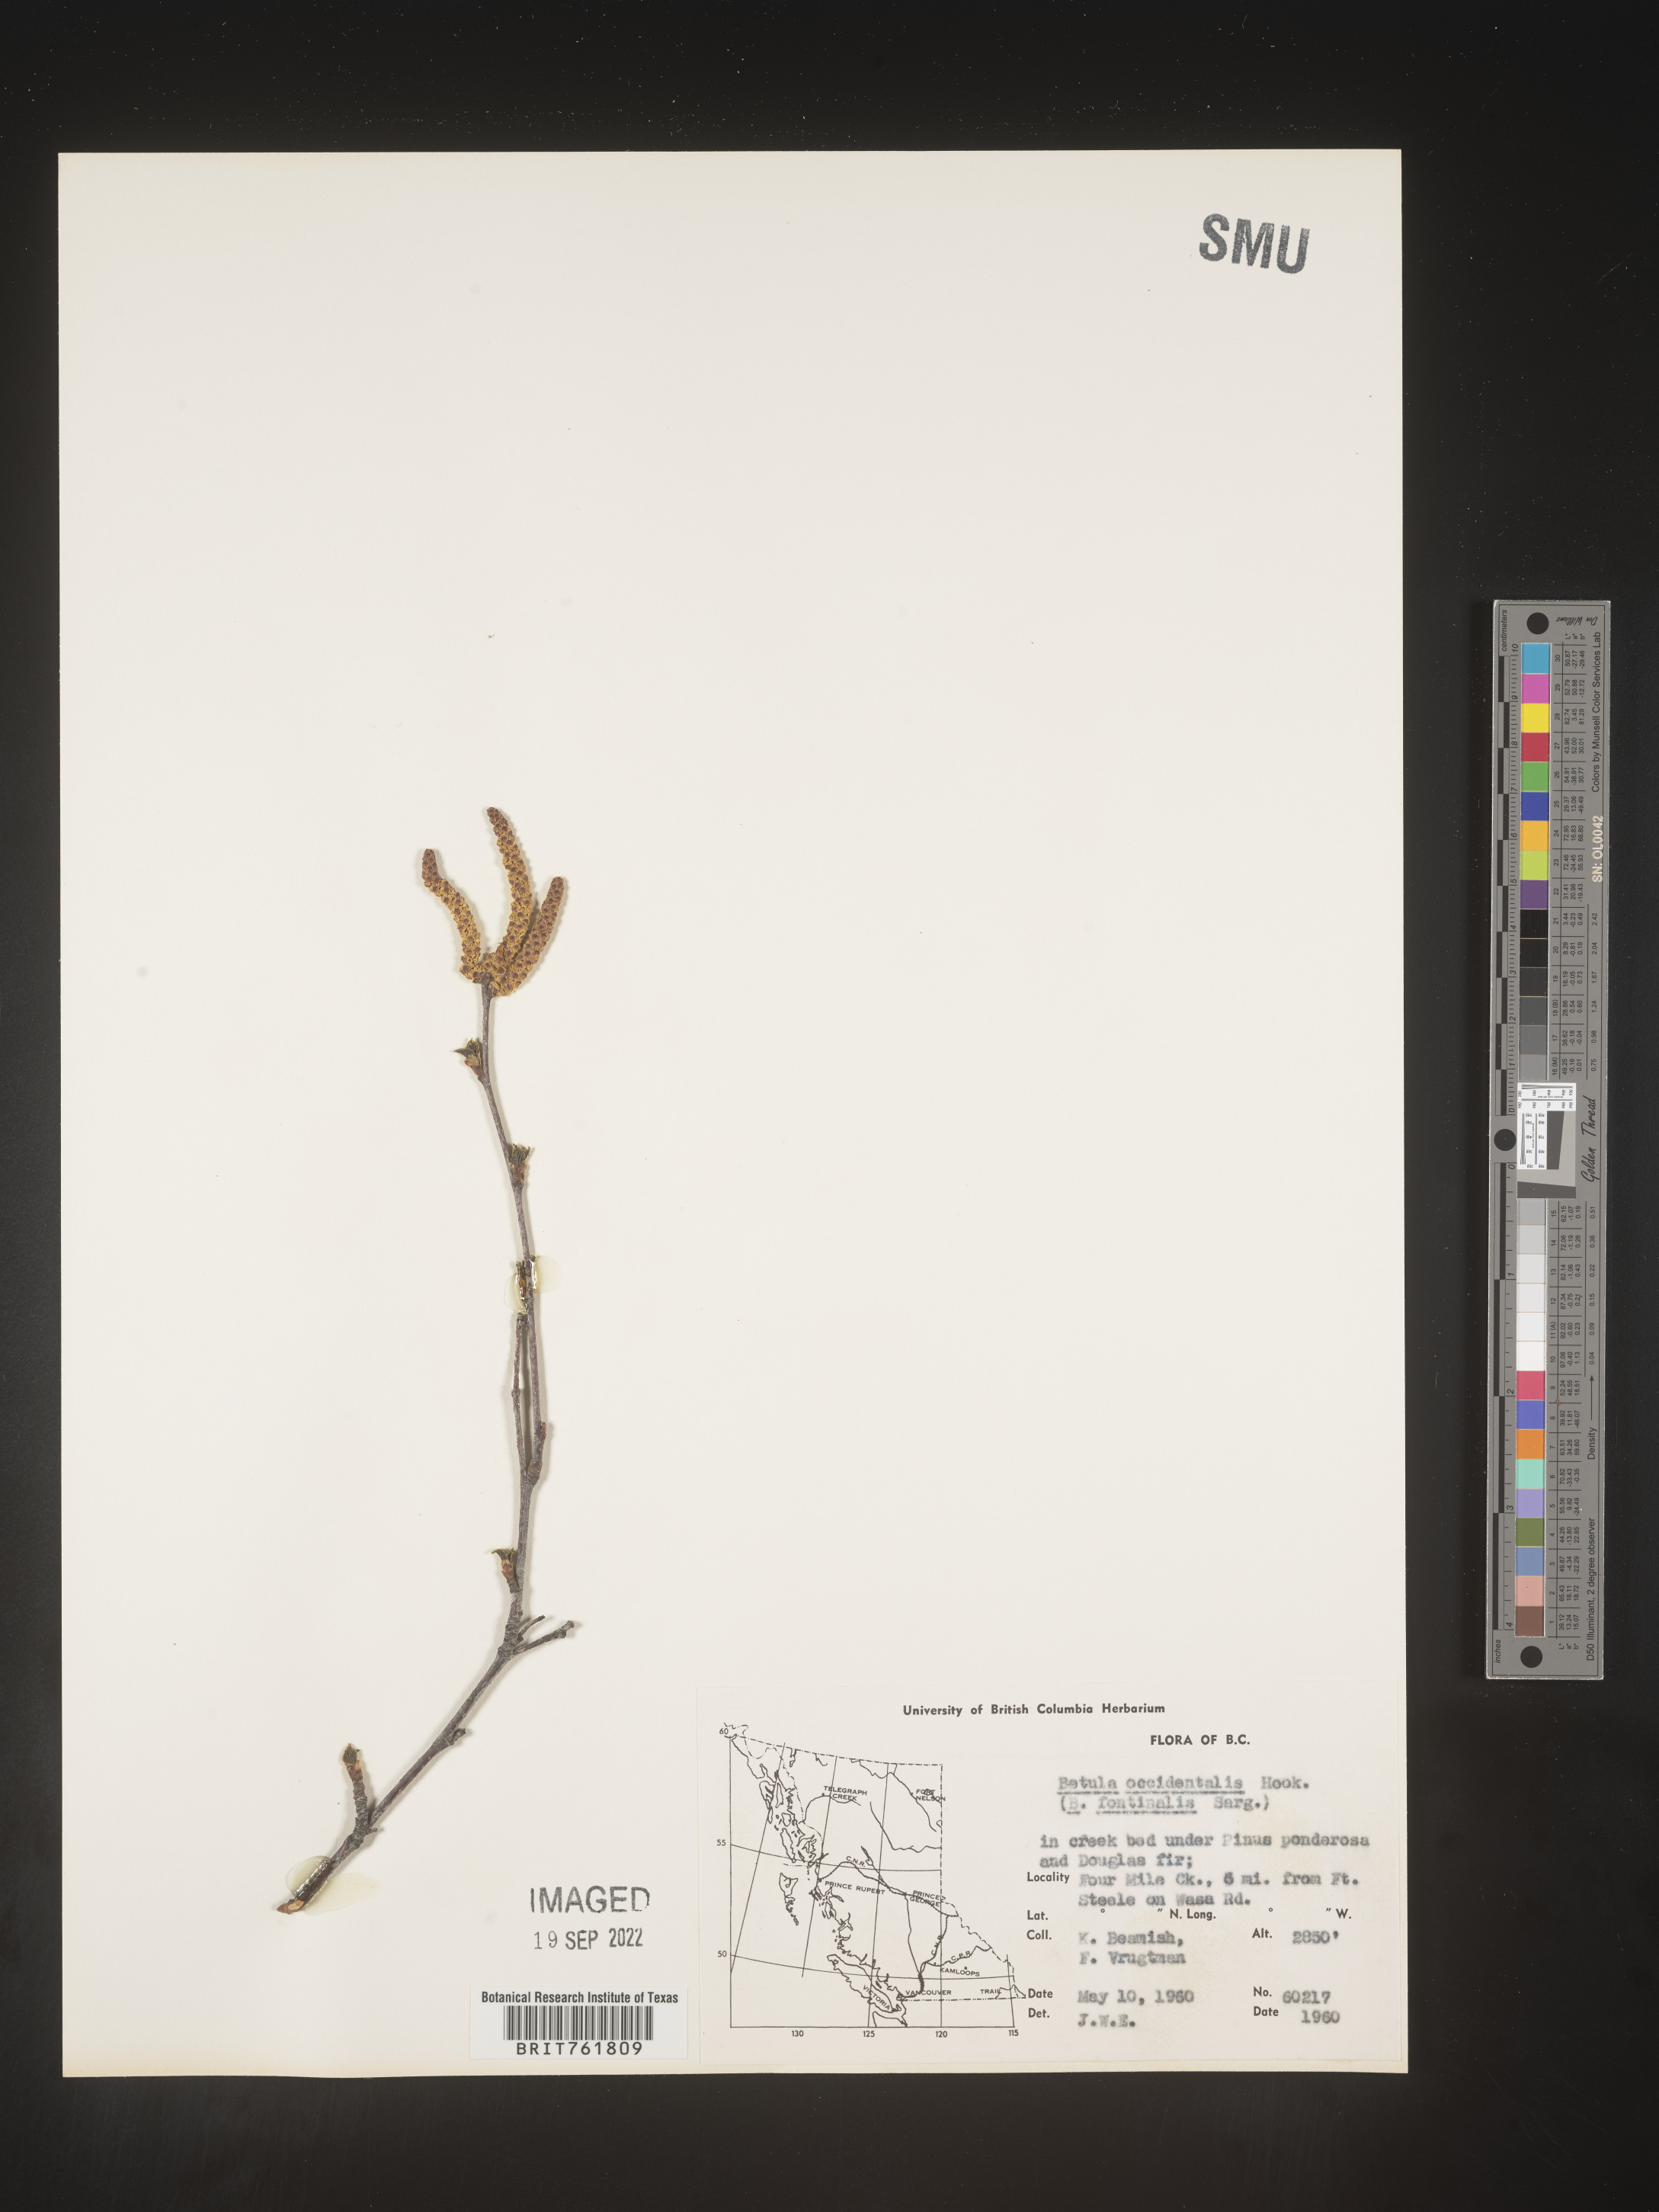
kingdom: Plantae
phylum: Tracheophyta
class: Magnoliopsida
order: Fagales
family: Betulaceae
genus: Betula
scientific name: Betula occidentalis
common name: River birch
